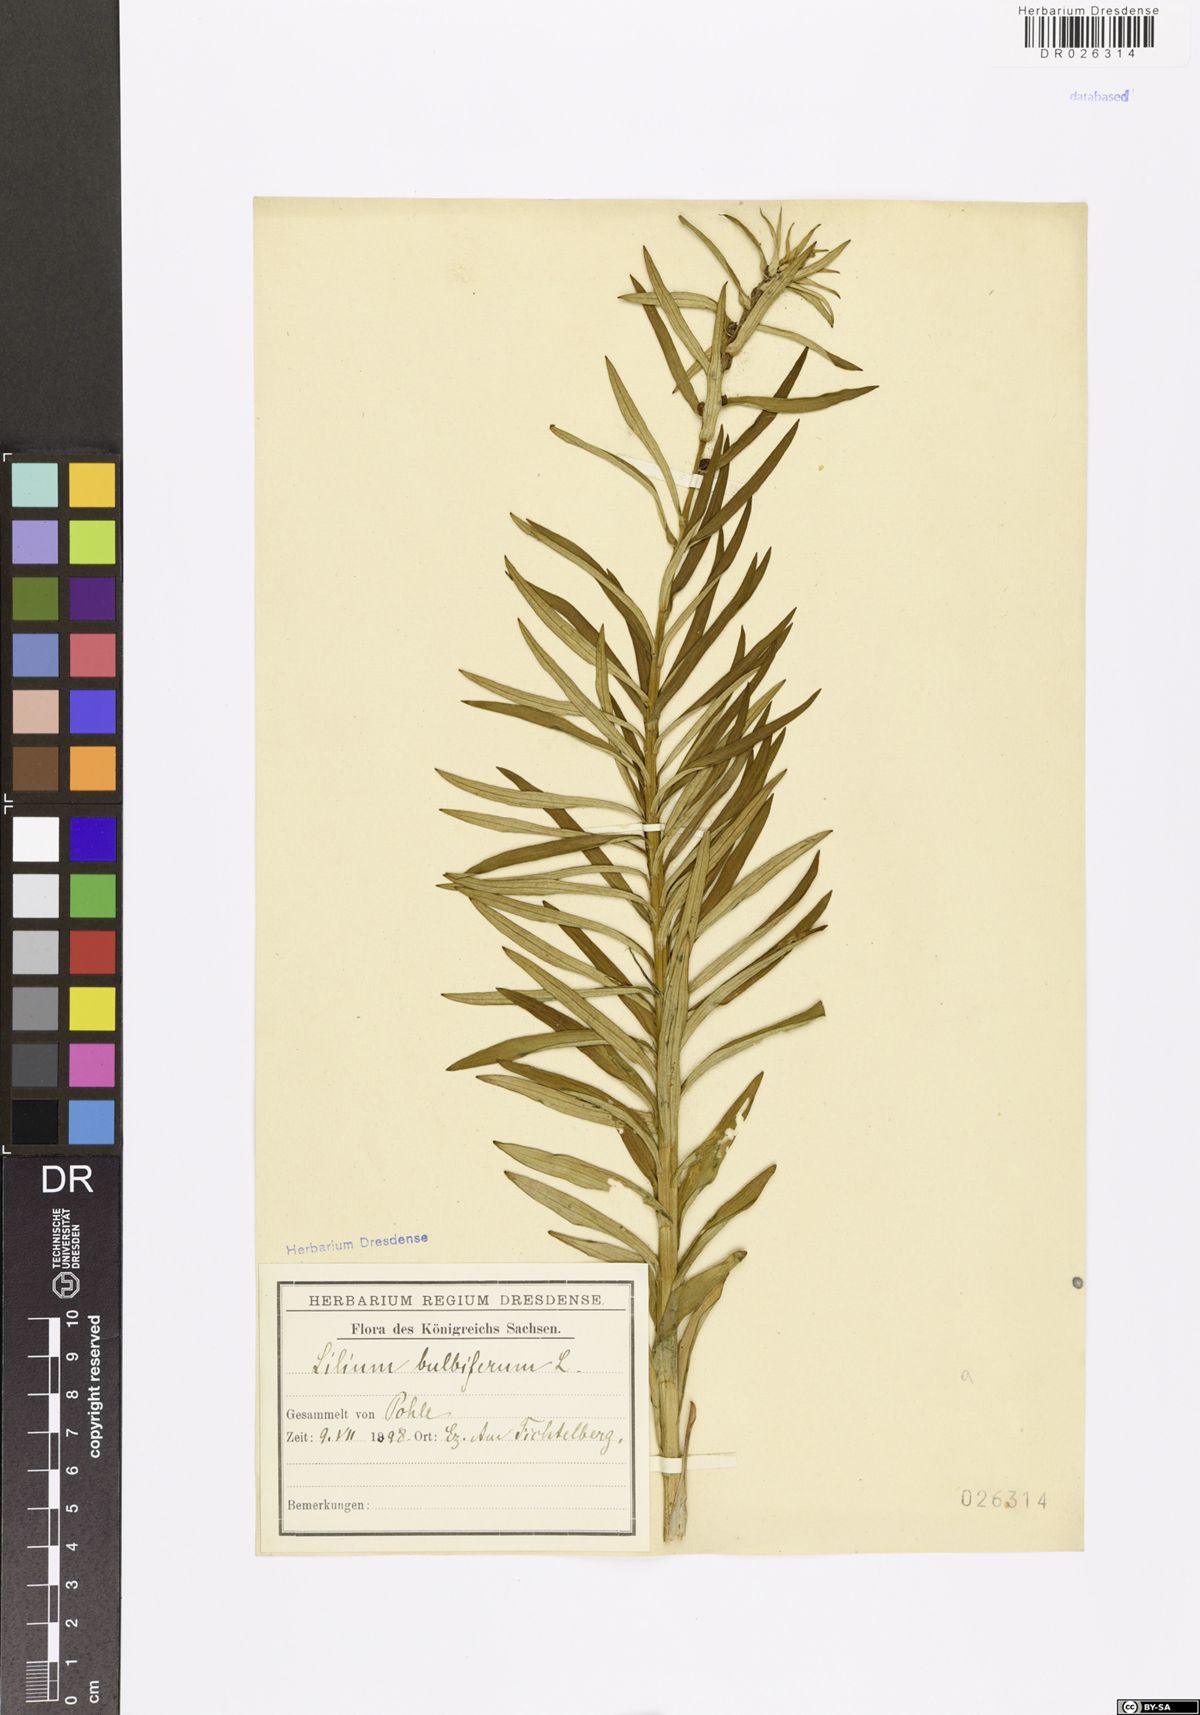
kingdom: Plantae
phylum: Tracheophyta
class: Liliopsida
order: Liliales
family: Liliaceae
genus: Lilium
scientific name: Lilium bulbiferum
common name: Orange lily
